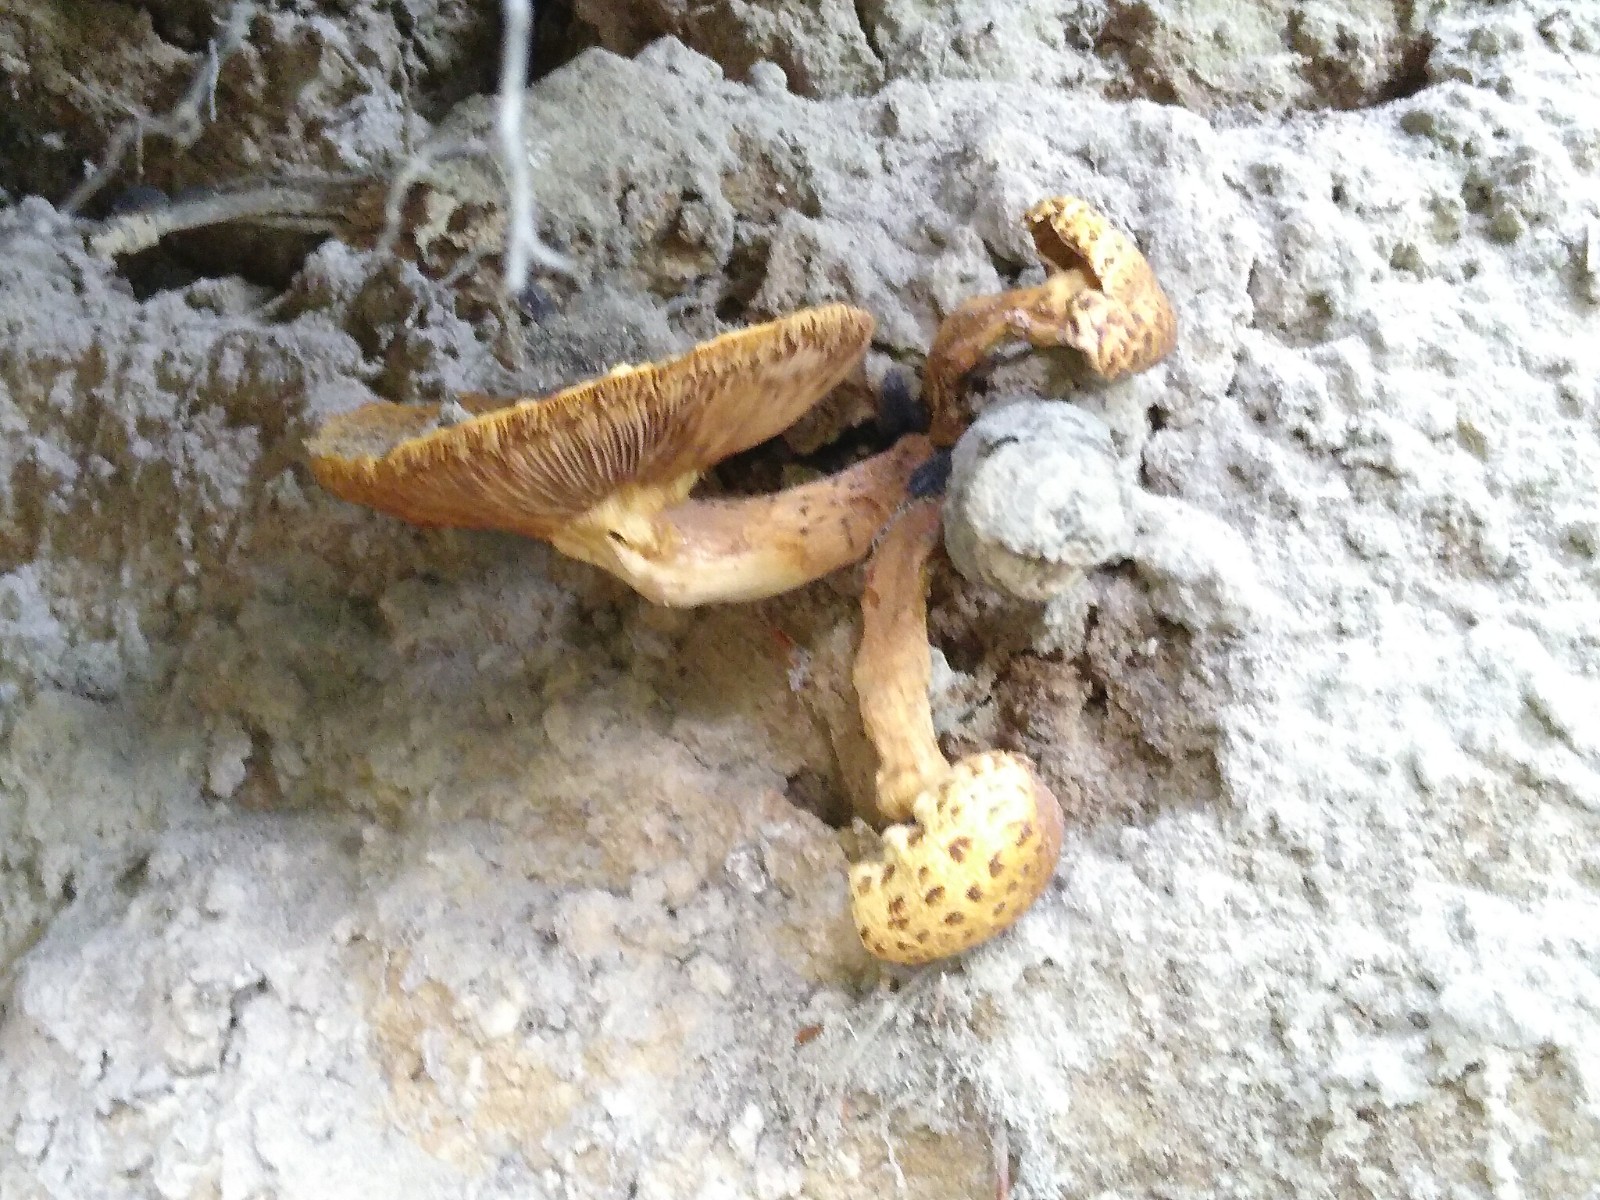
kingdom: Fungi
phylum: Basidiomycota
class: Agaricomycetes
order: Agaricales
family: Strophariaceae
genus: Pholiota
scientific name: Pholiota
